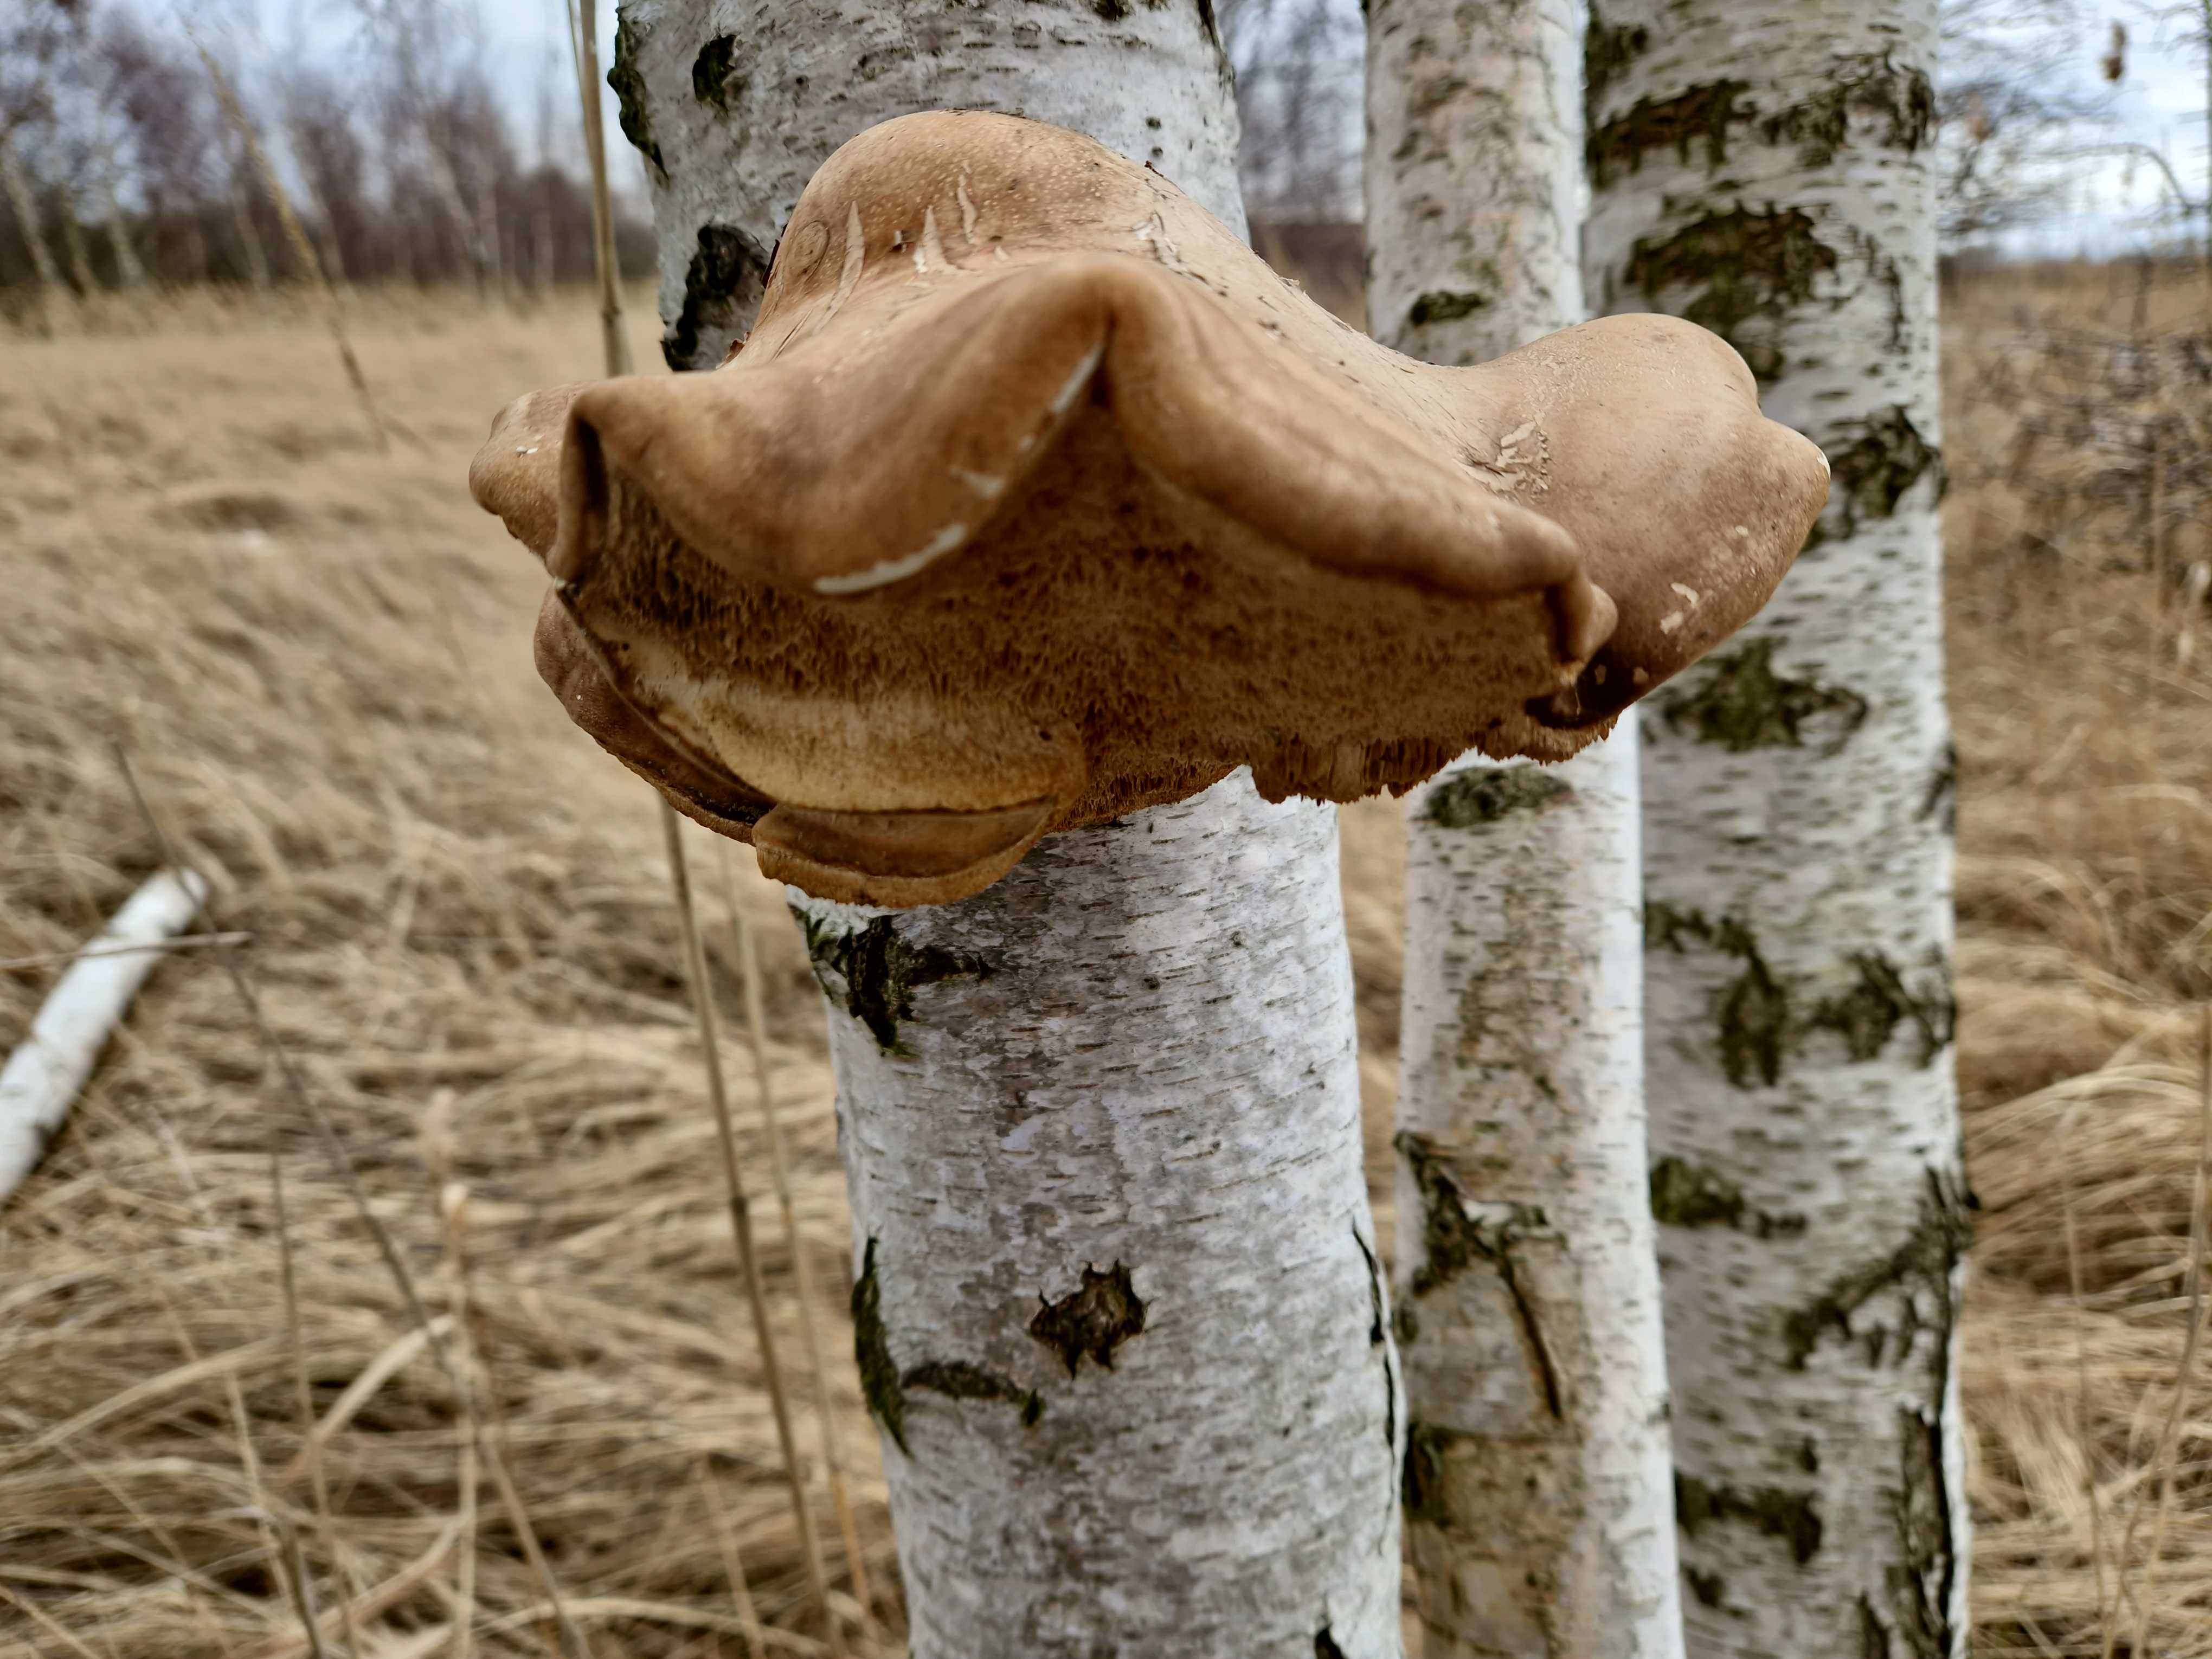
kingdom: Fungi
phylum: Basidiomycota
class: Agaricomycetes
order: Polyporales
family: Fomitopsidaceae
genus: Fomitopsis
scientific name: Fomitopsis betulina
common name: birkeporesvamp
